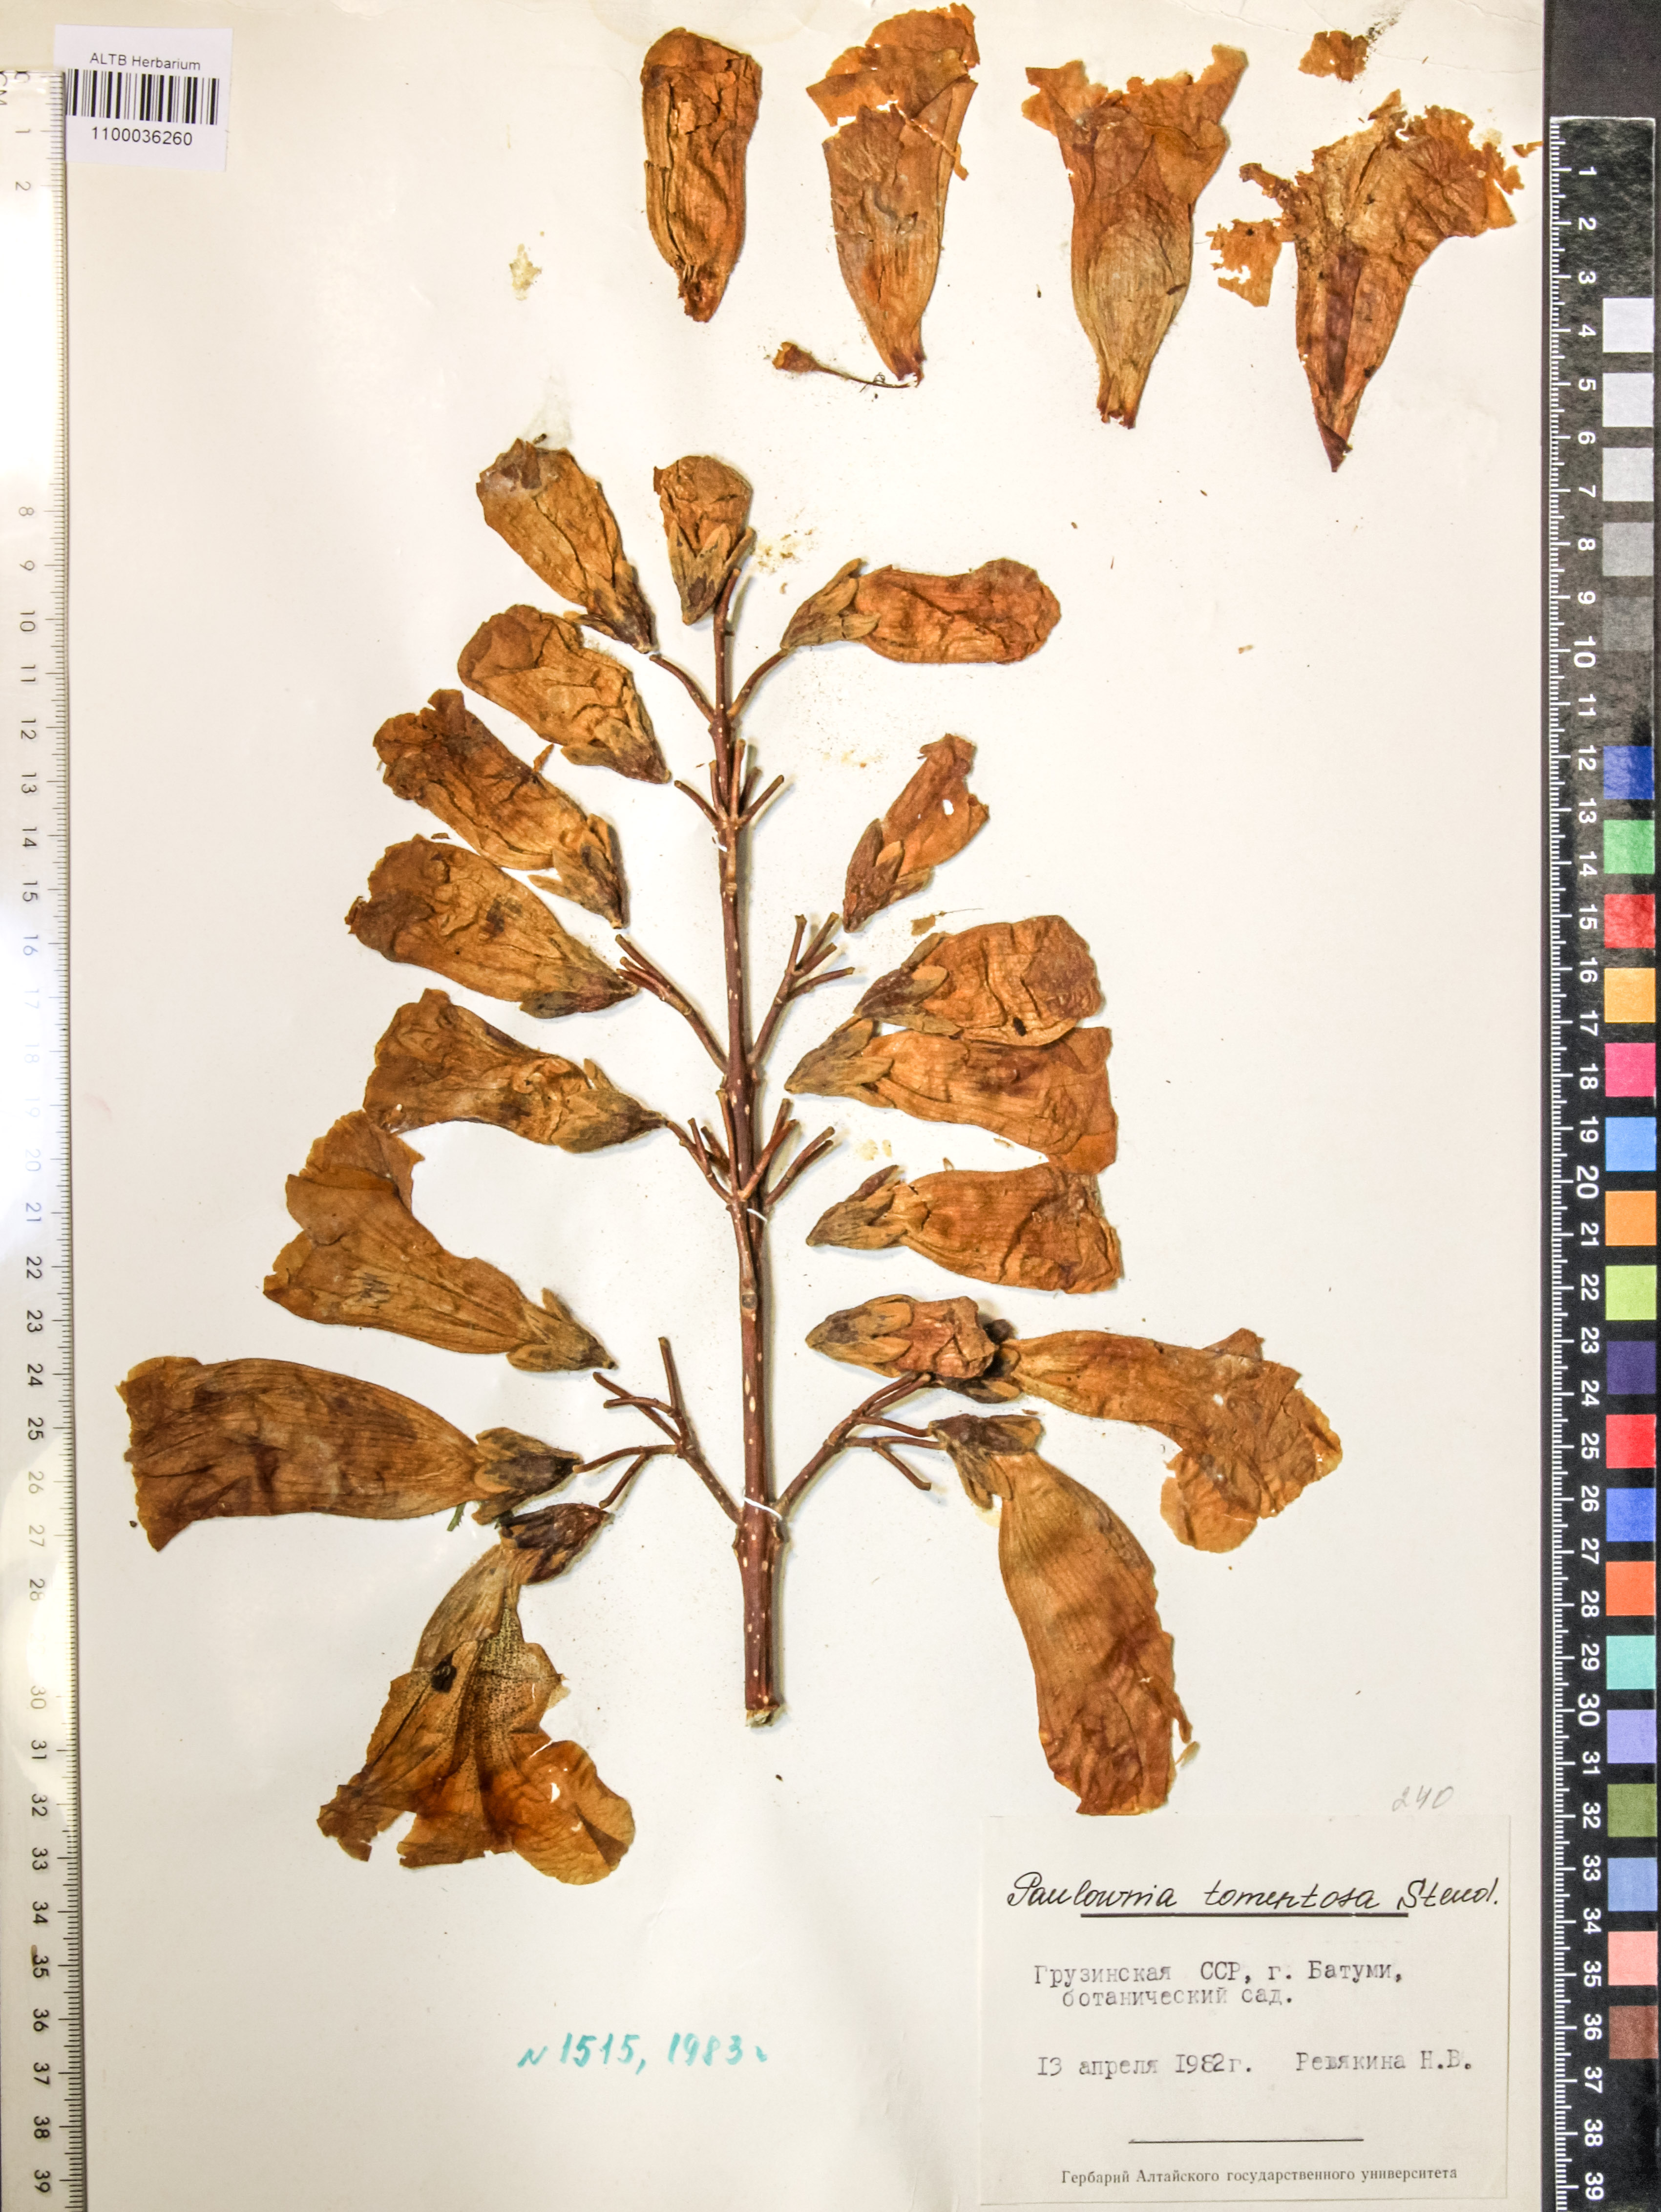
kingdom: Plantae
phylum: Tracheophyta
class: Magnoliopsida
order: Lamiales
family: Paulowniaceae
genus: Paulownia
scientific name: Paulownia tomentosa
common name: Foxglove-tree
